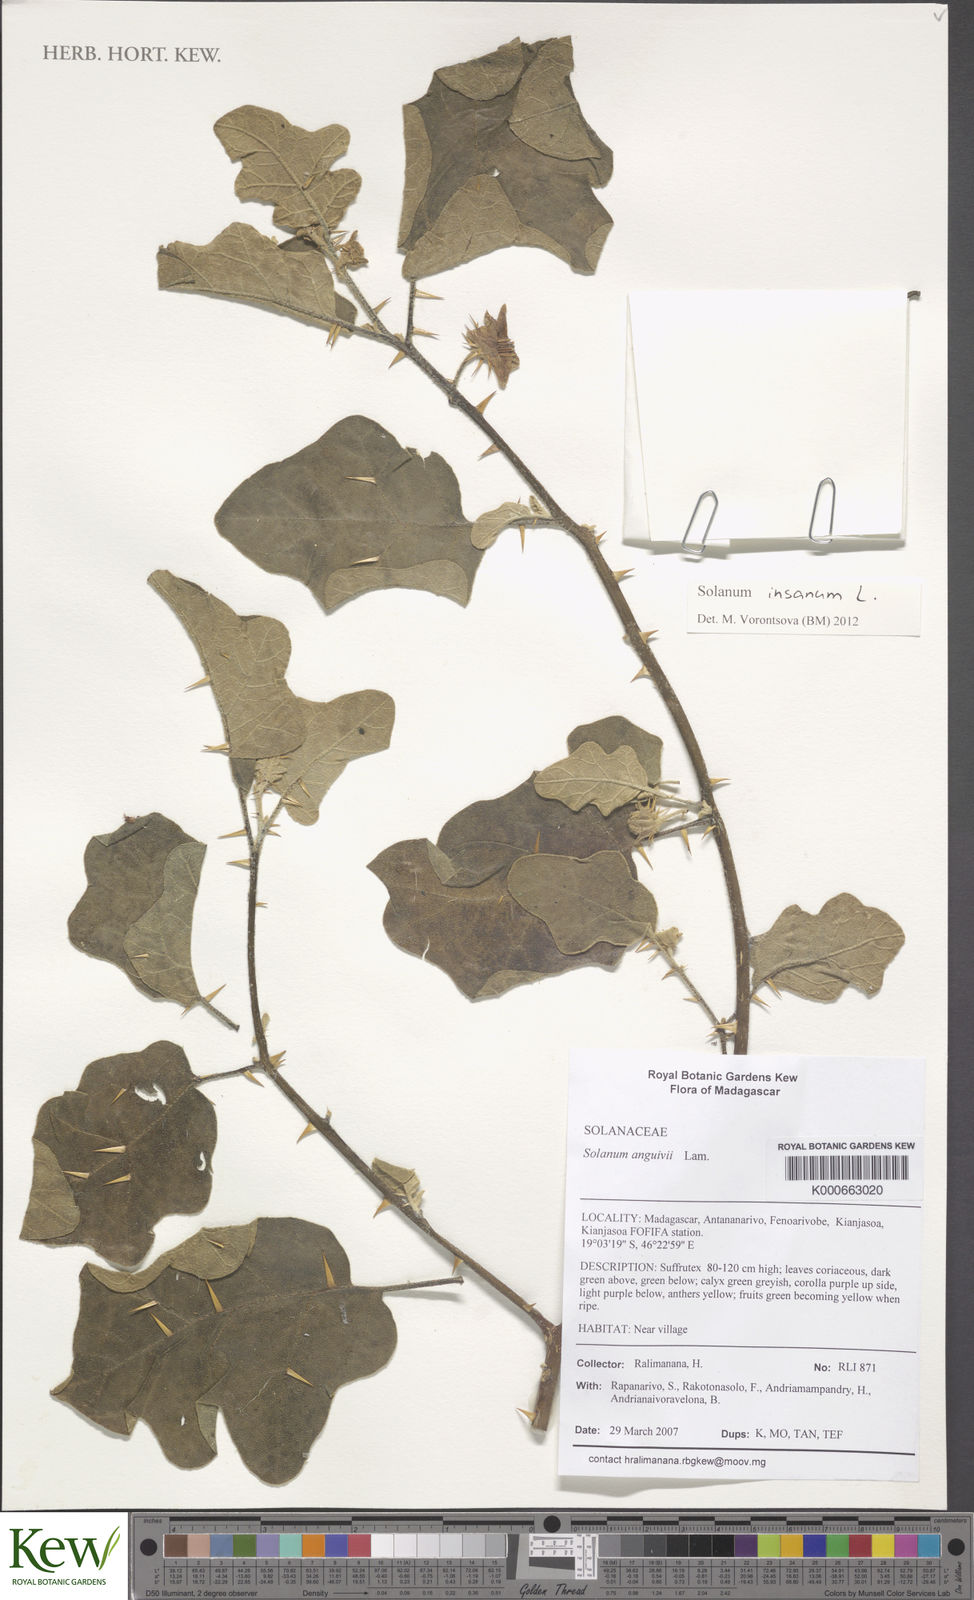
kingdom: Plantae
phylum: Tracheophyta
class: Magnoliopsida
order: Solanales
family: Solanaceae
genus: Solanum
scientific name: Solanum insanum
